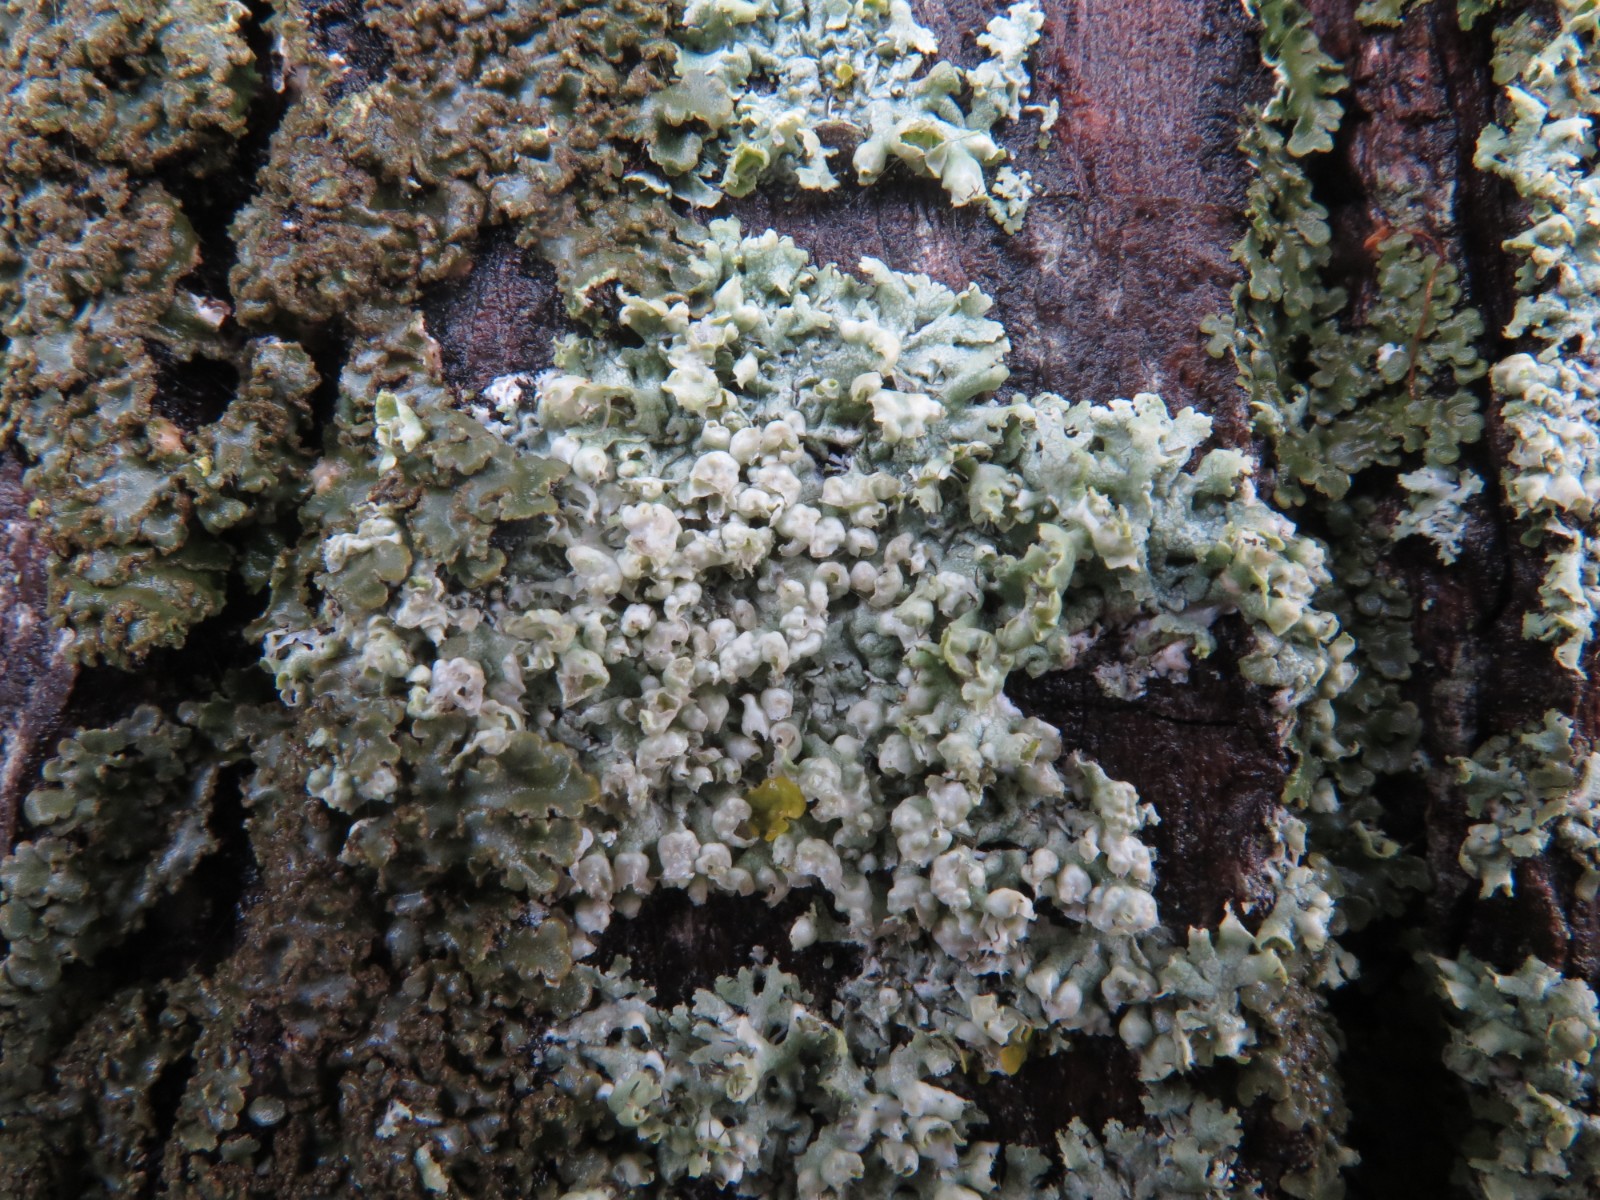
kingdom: Fungi
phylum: Ascomycota
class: Lecanoromycetes
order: Caliciales
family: Physciaceae
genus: Physcia
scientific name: Physcia adscendens
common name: hætte-rosetlav
